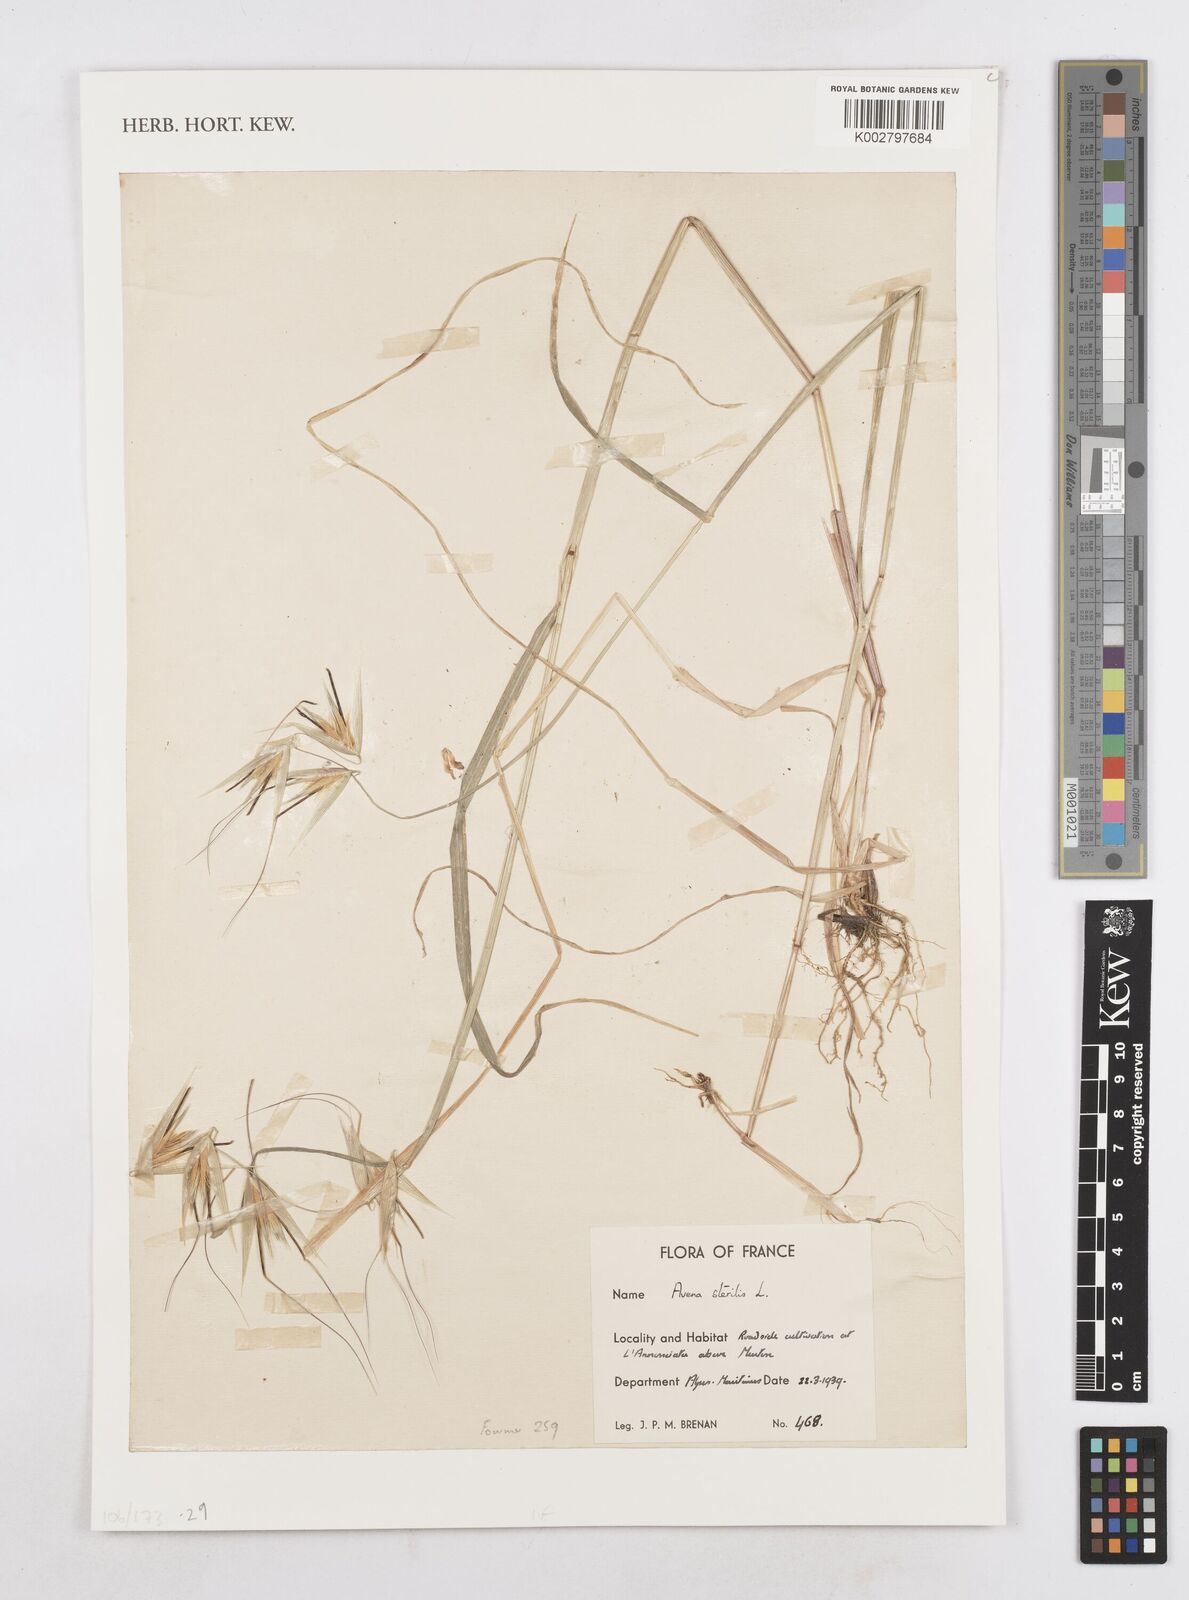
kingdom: Plantae
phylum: Tracheophyta
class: Liliopsida
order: Poales
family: Poaceae
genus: Avena
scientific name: Avena sterilis
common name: Animated oat
